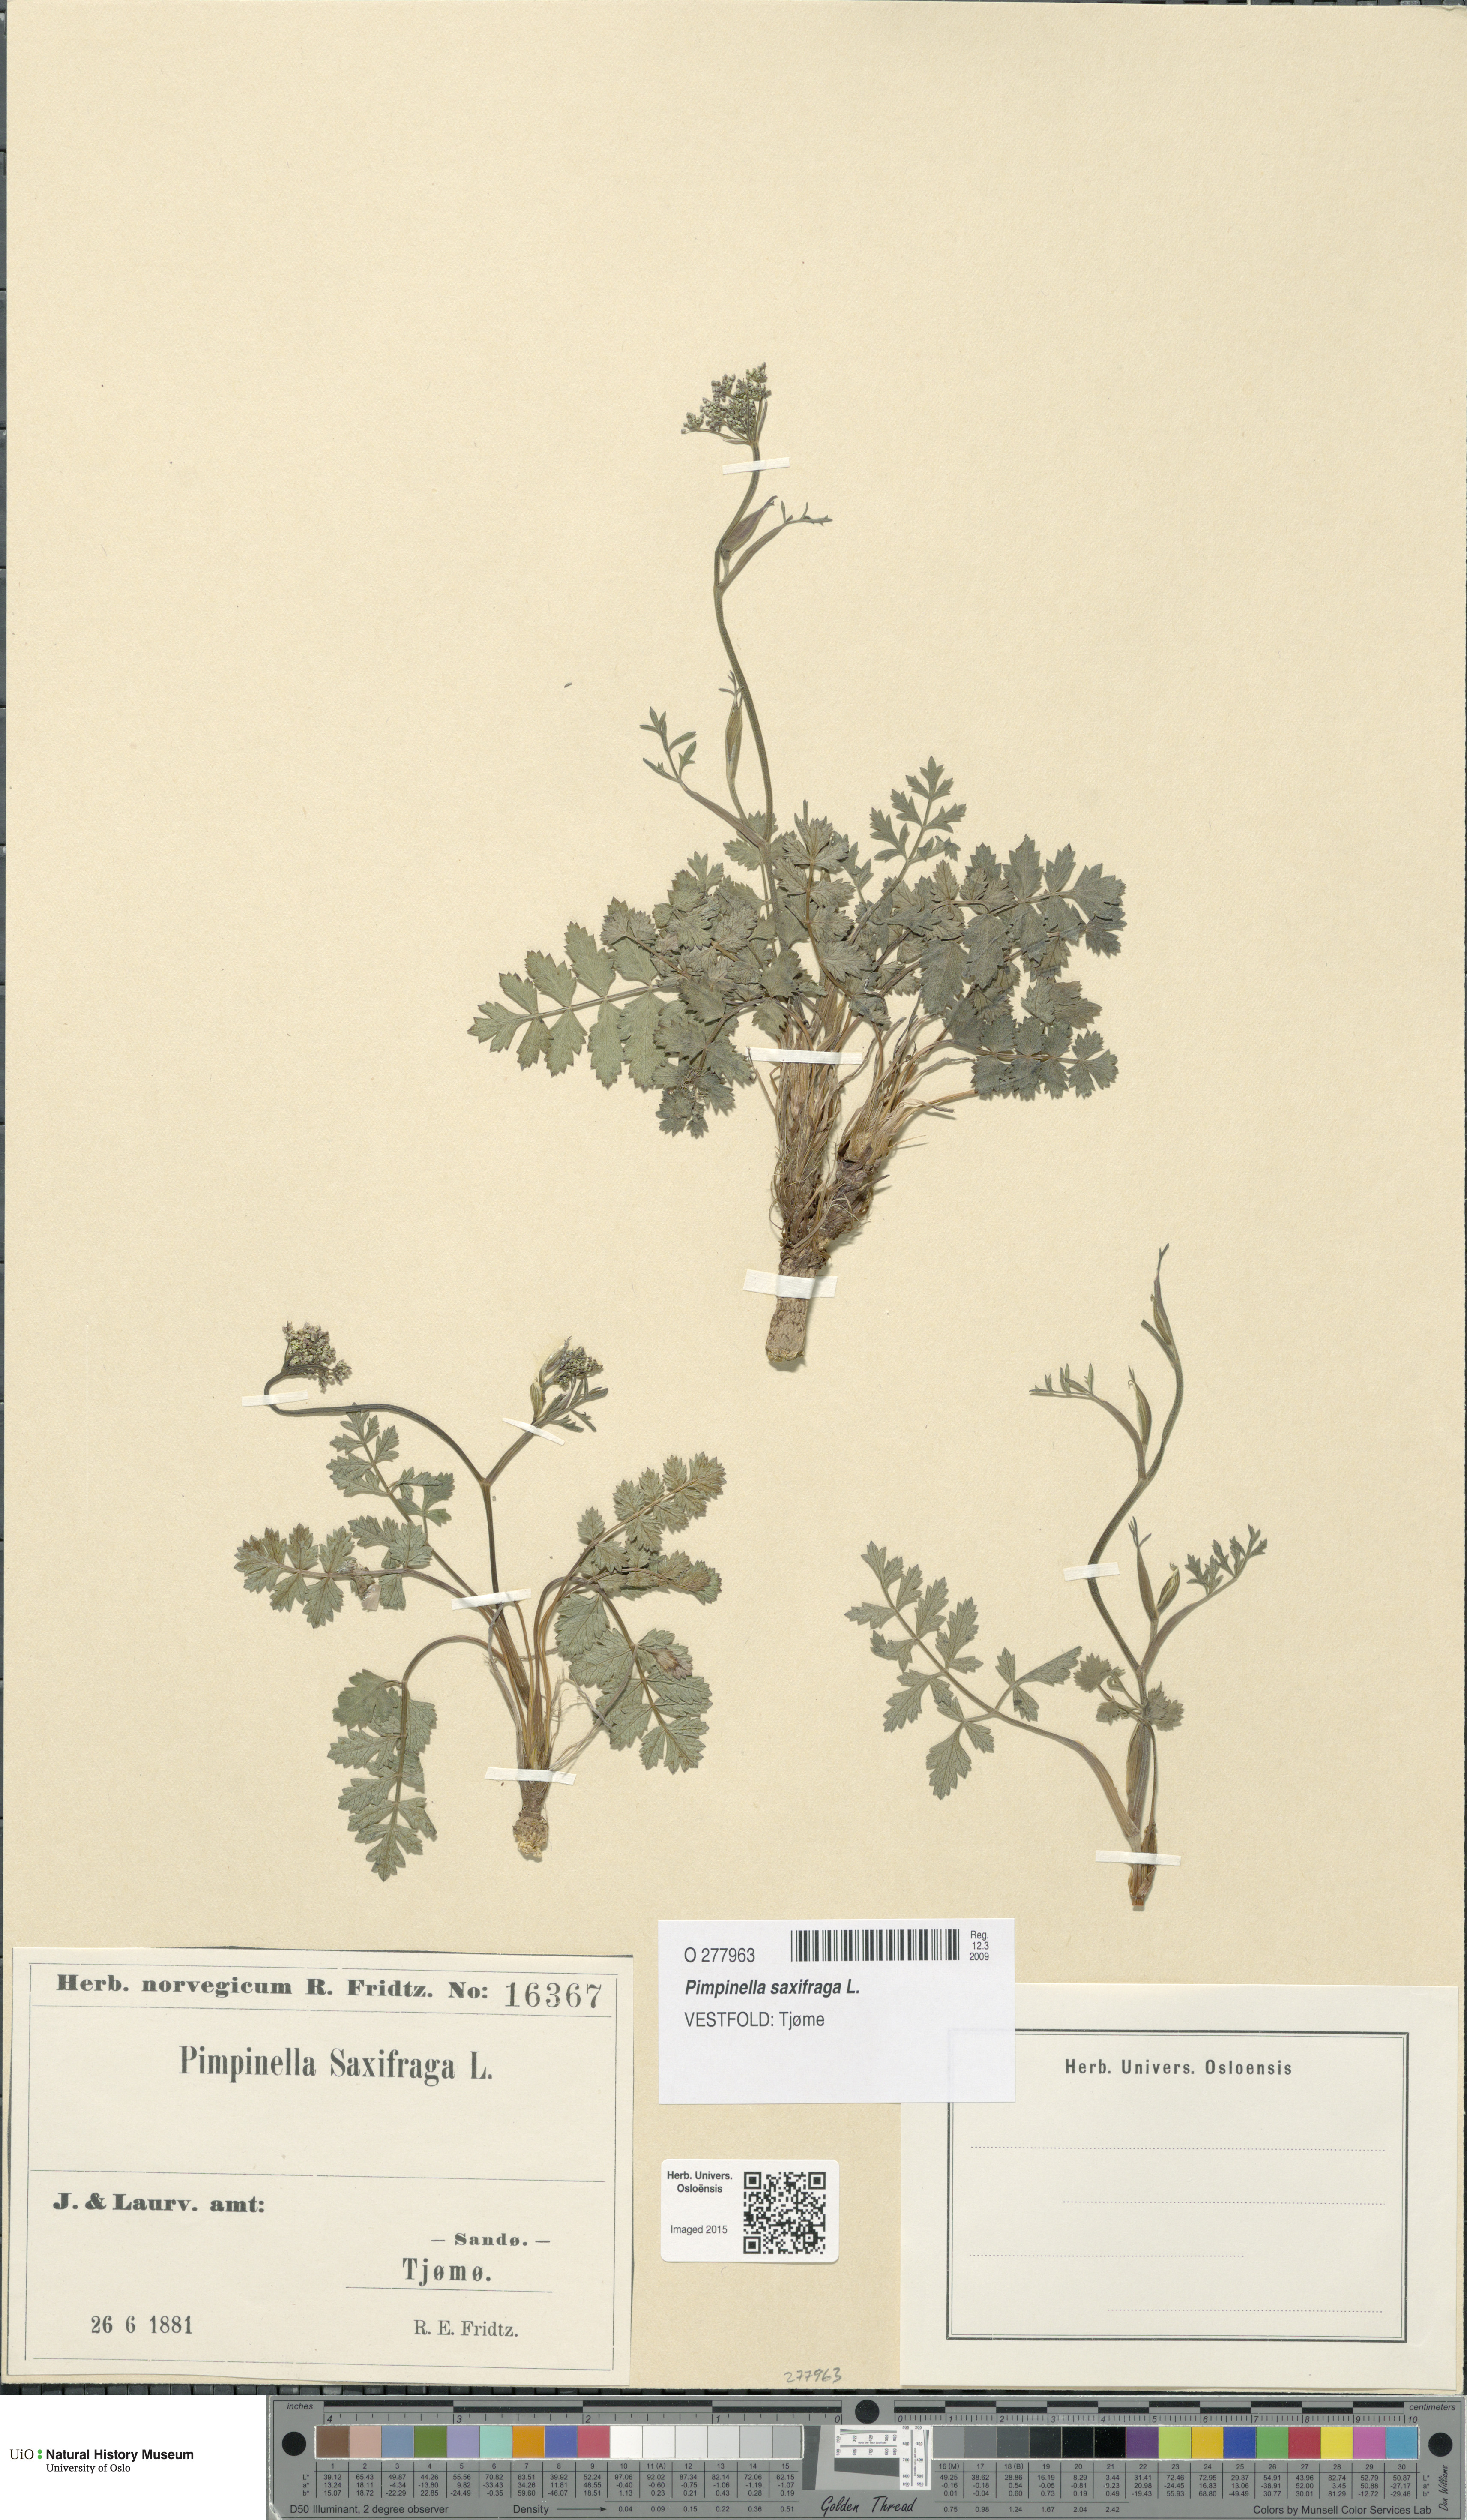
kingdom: Plantae
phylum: Tracheophyta
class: Magnoliopsida
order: Apiales
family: Apiaceae
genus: Pimpinella
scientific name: Pimpinella saxifraga
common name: Burnet-saxifrage
